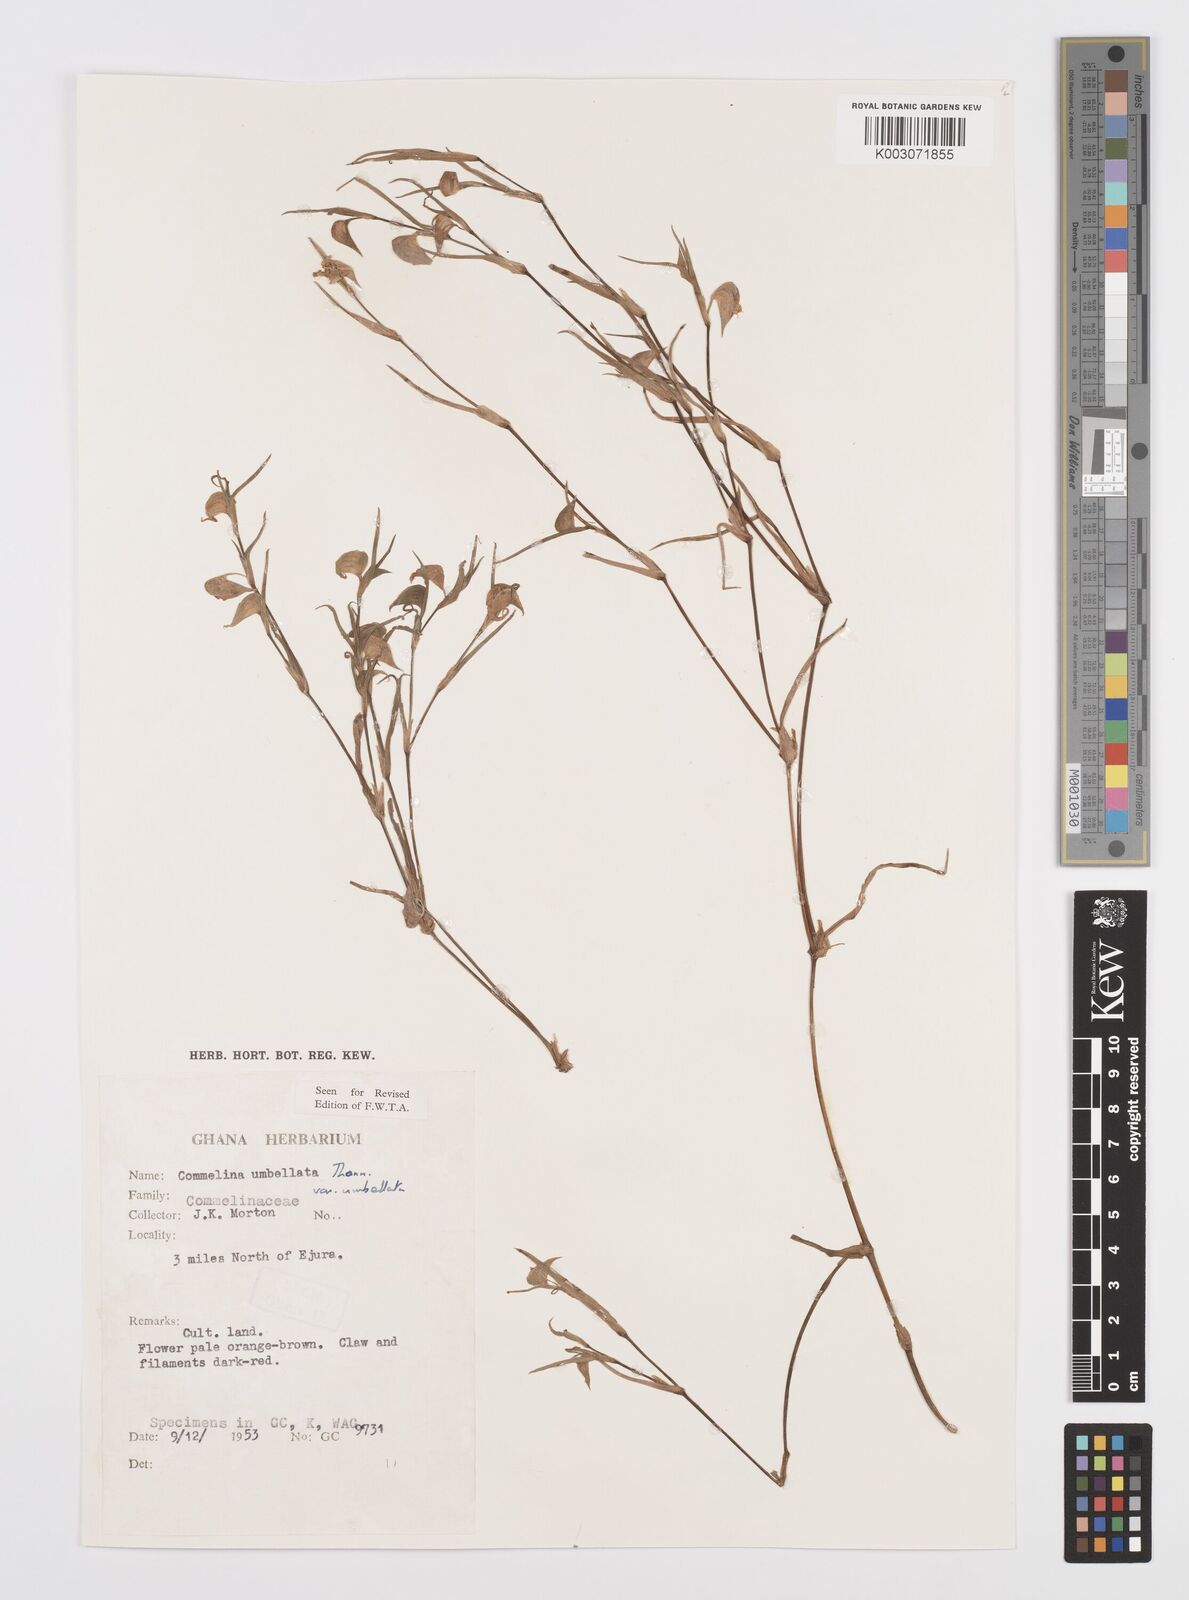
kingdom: Plantae
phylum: Tracheophyta
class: Liliopsida
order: Commelinales
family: Commelinaceae
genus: Commelina
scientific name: Commelina
